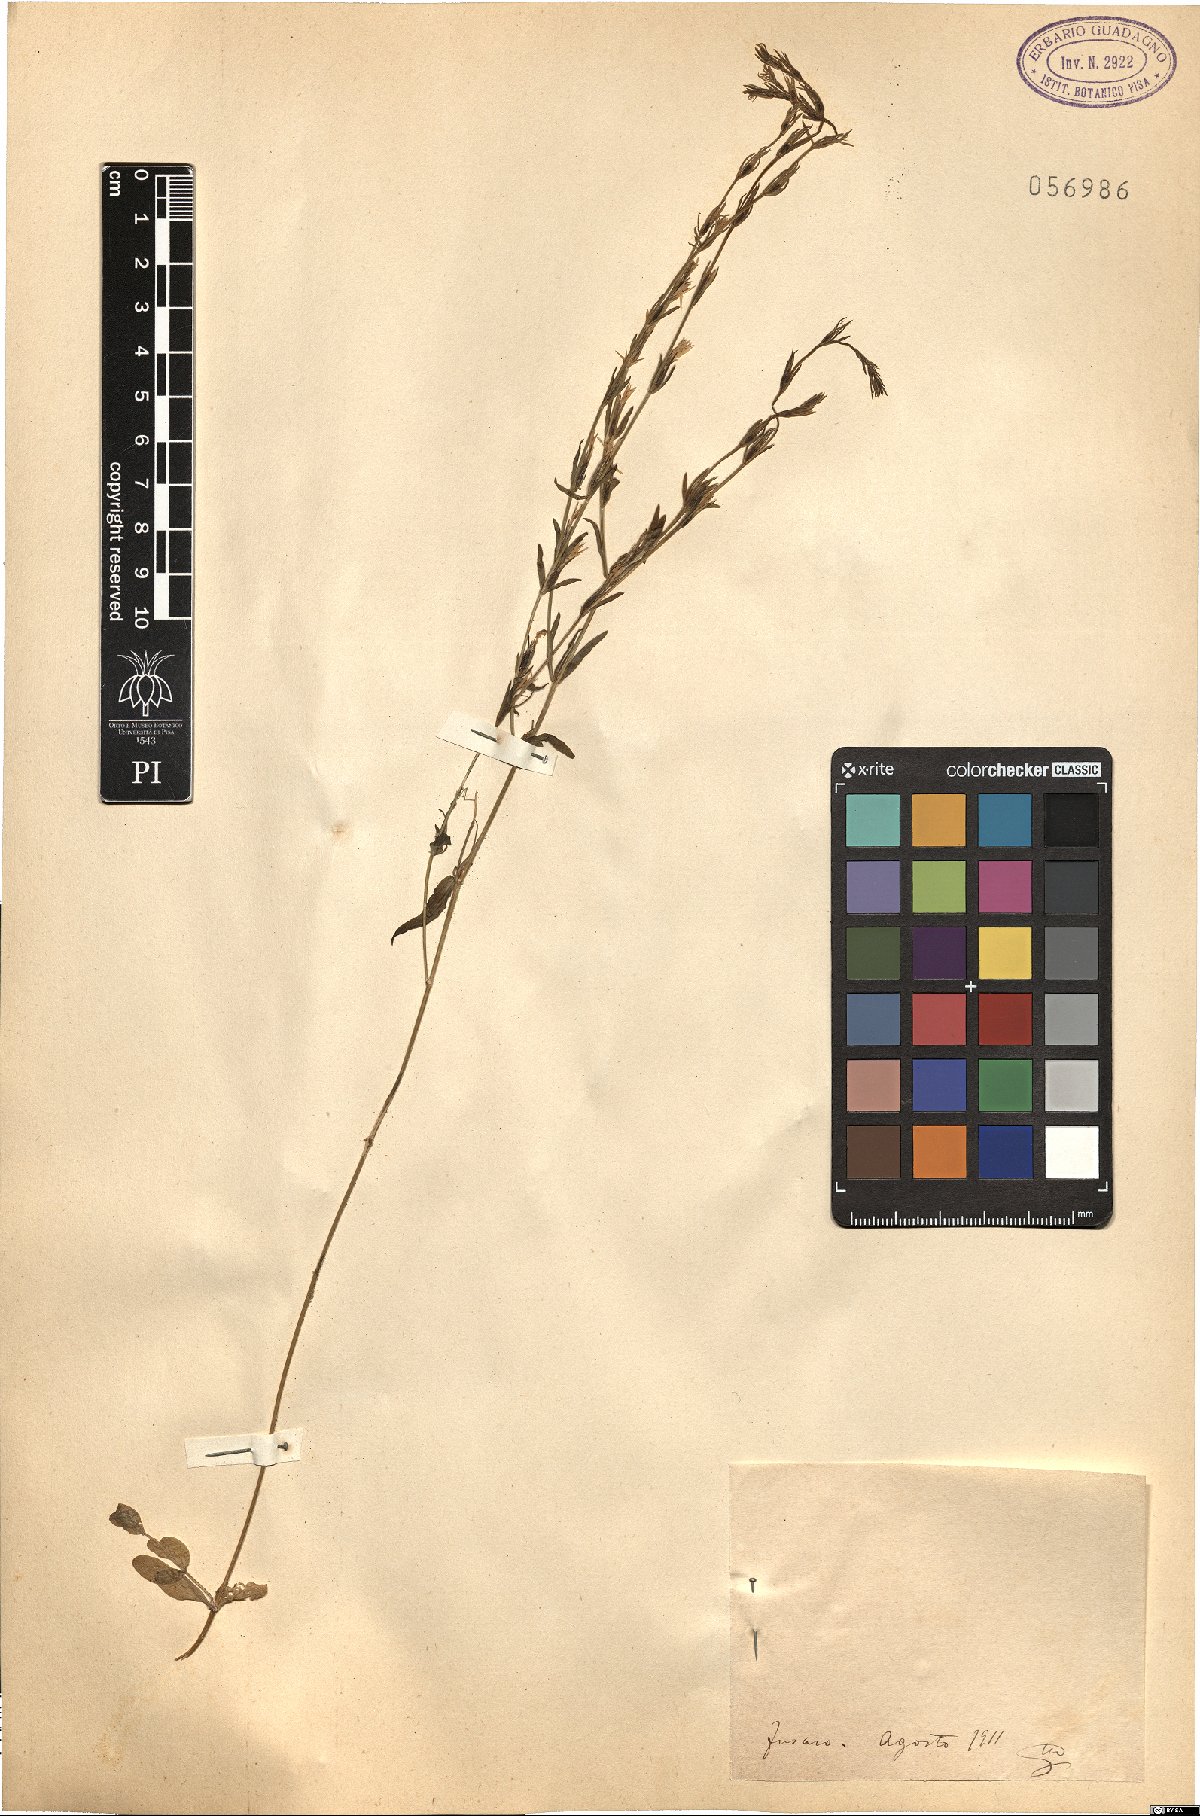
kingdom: Plantae
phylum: Tracheophyta
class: Magnoliopsida
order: Gentianales
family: Gentianaceae
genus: Erythraea
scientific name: Erythraea
